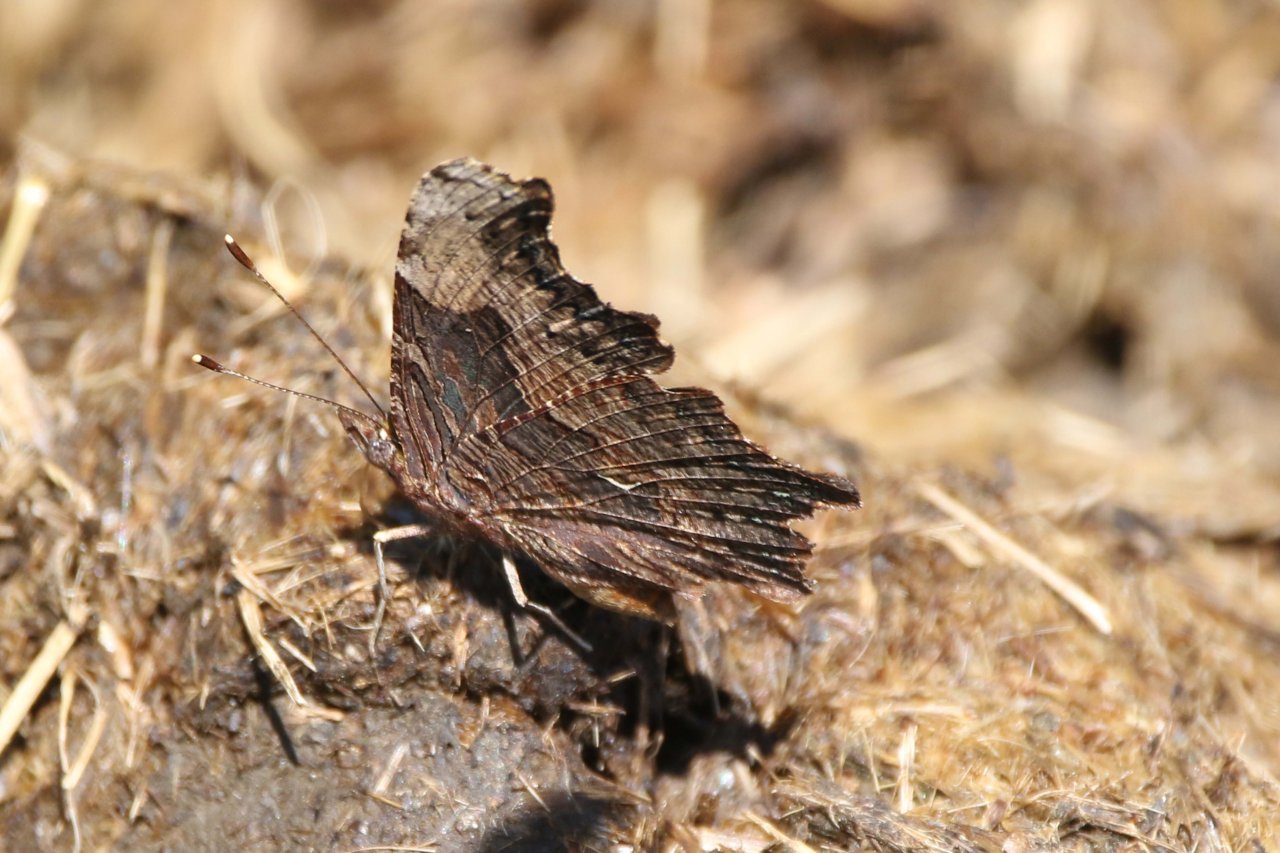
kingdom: Animalia
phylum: Arthropoda
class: Insecta
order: Lepidoptera
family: Nymphalidae
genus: Polygonia
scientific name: Polygonia progne
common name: Gray Comma
